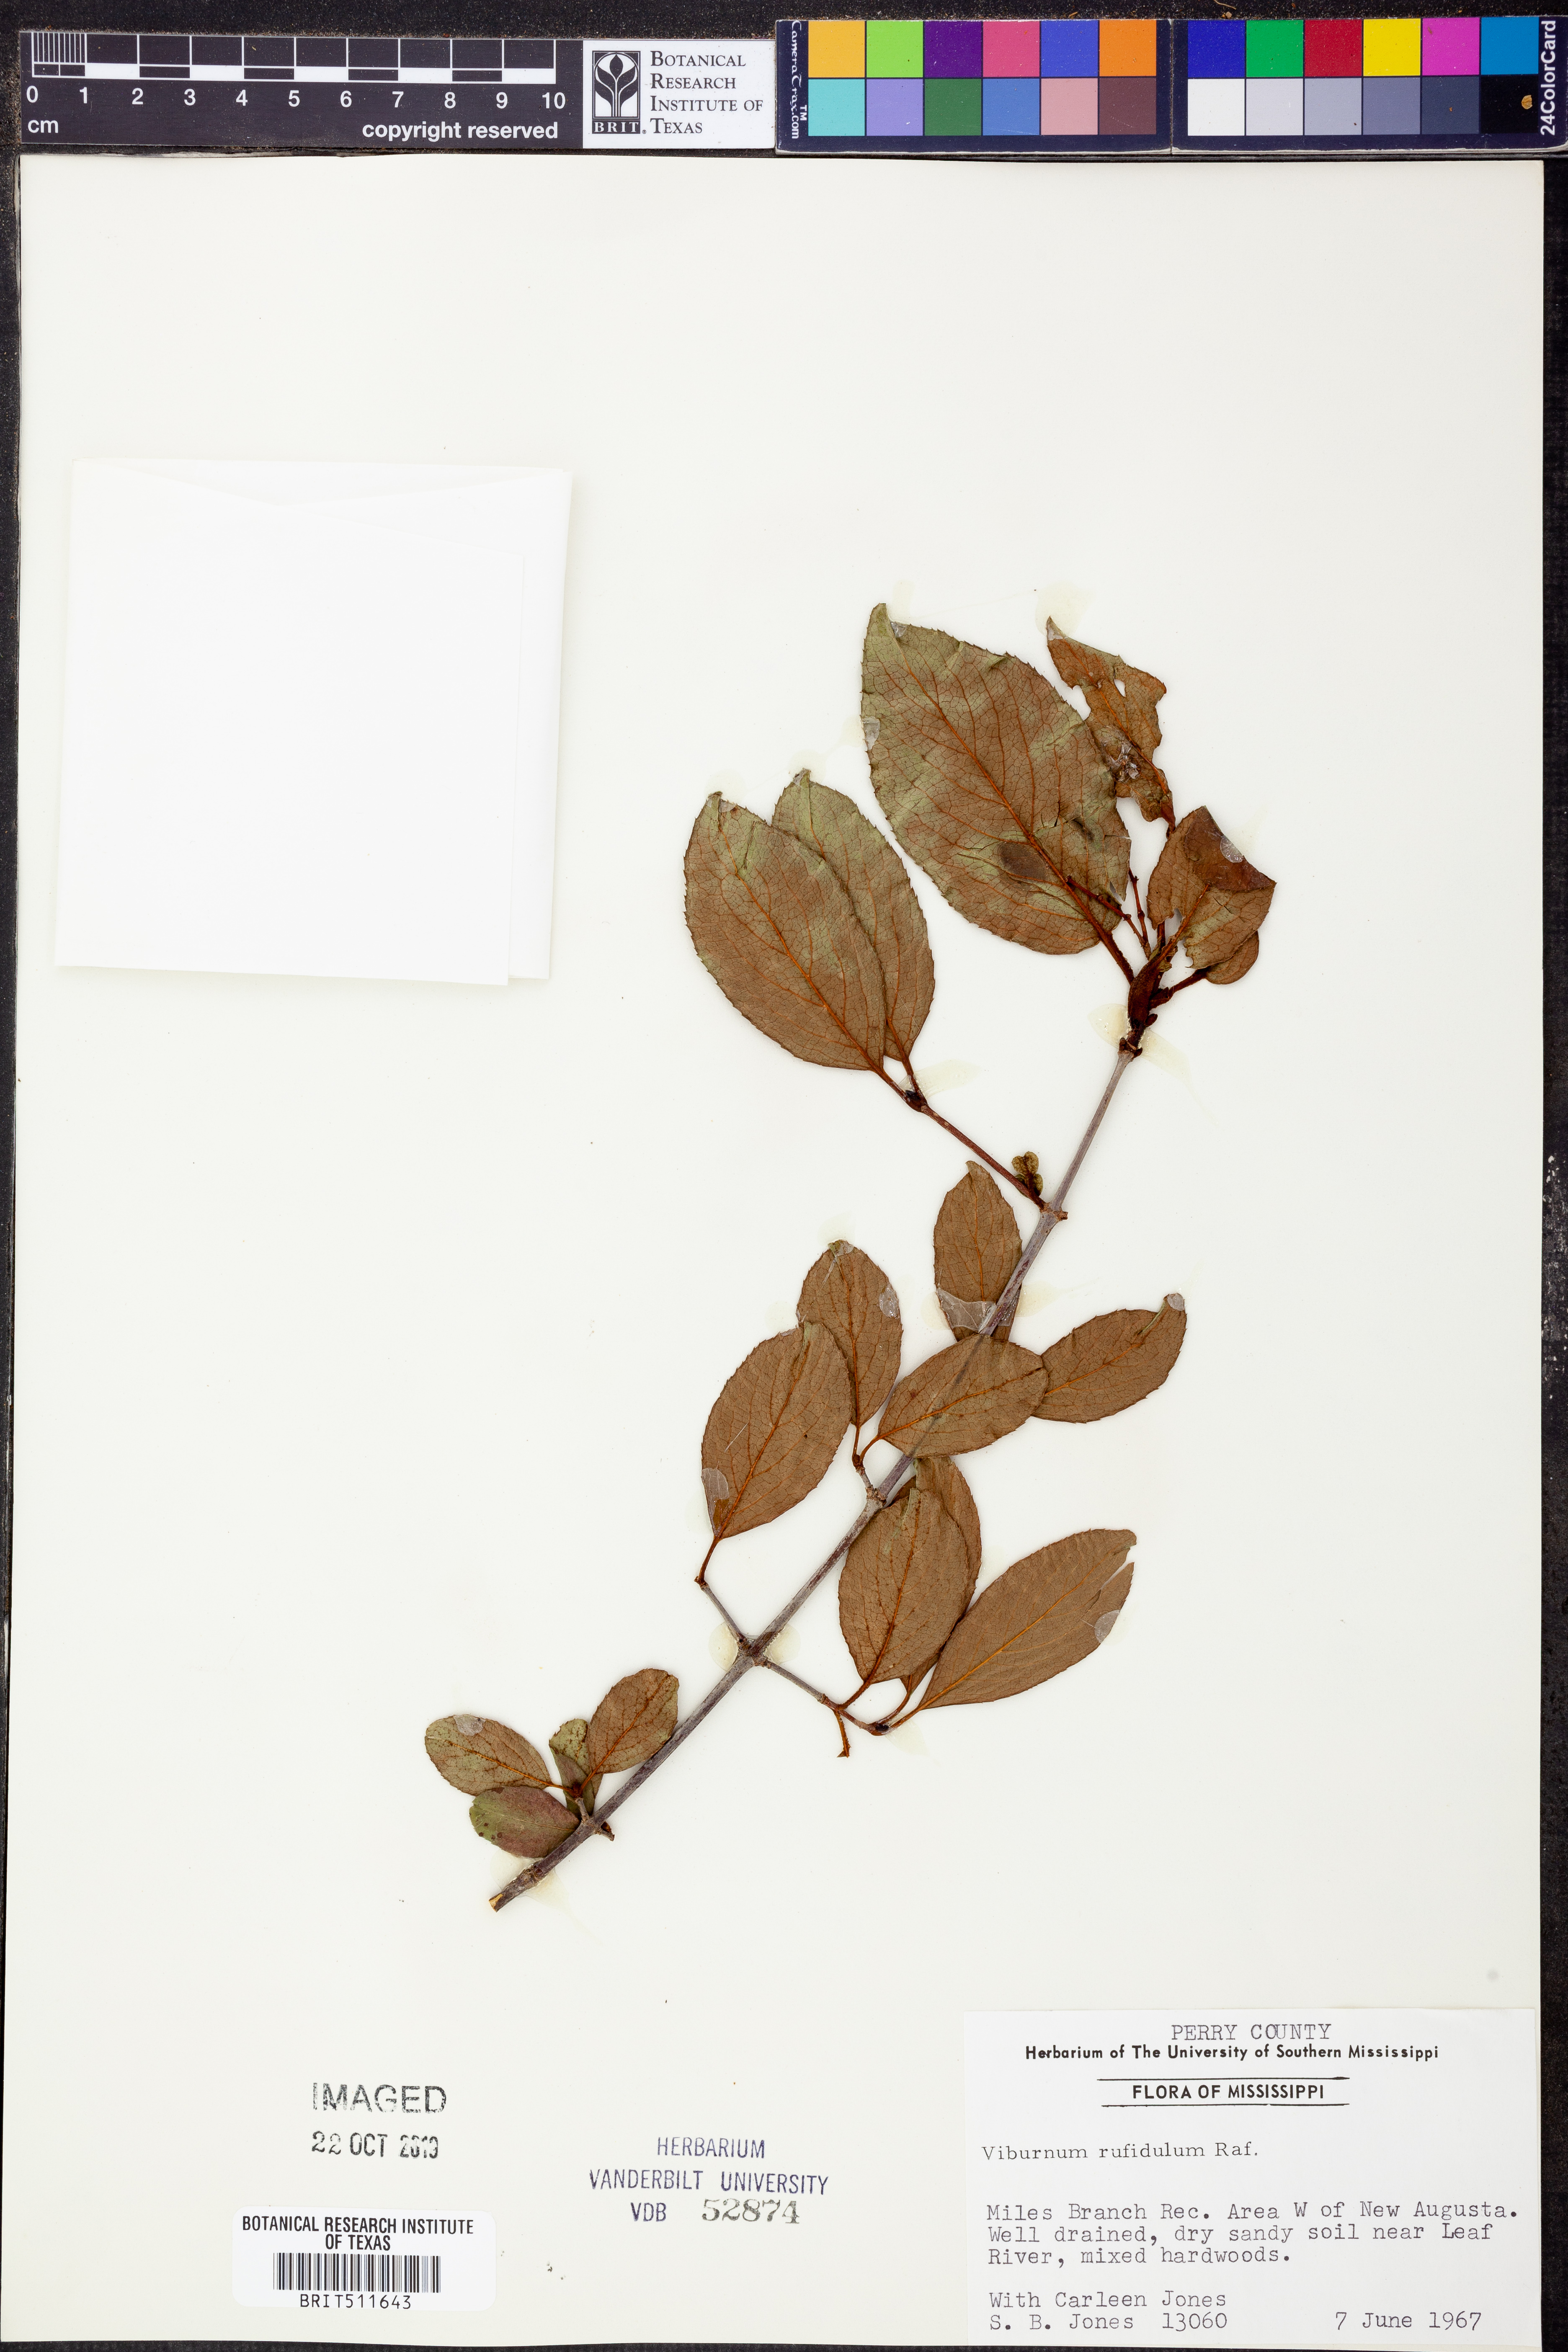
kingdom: Plantae
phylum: Tracheophyta
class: Magnoliopsida
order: Dipsacales
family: Viburnaceae
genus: Viburnum
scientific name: Viburnum rufidulum
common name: Blue haw
